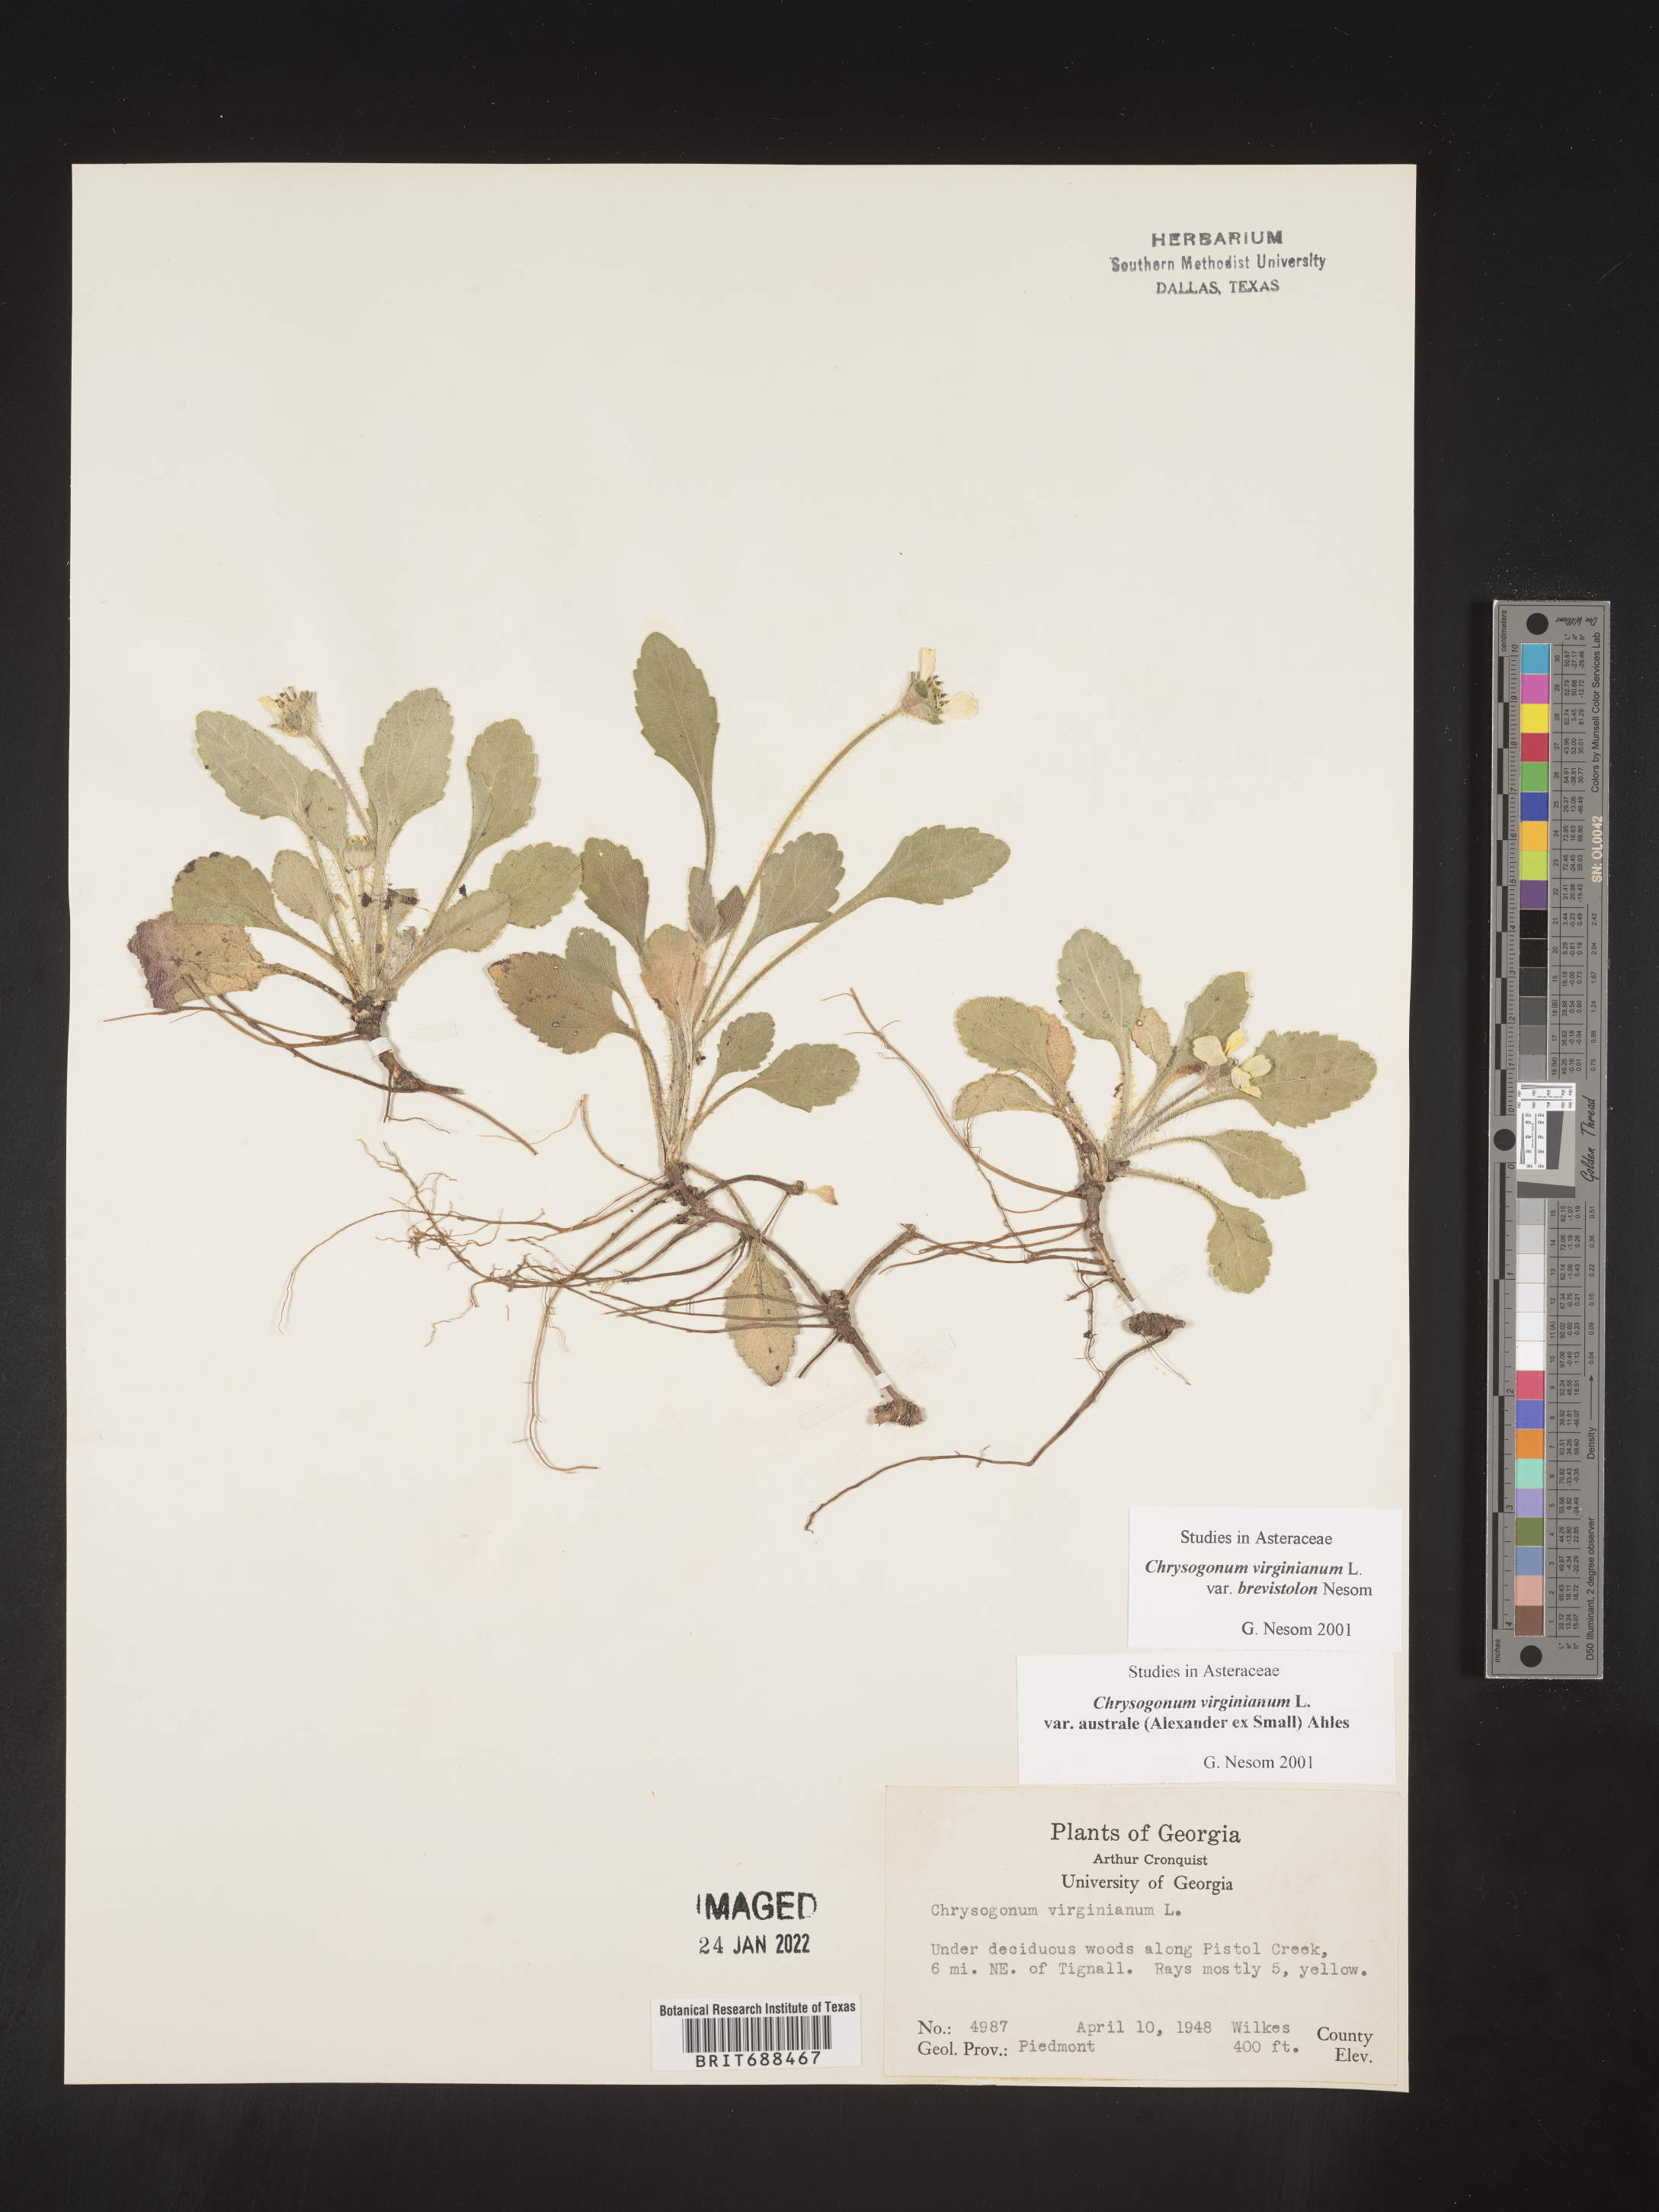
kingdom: Plantae
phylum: Tracheophyta
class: Magnoliopsida
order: Asterales
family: Asteraceae
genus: Chrysogonum
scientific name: Chrysogonum virginianum
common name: Golden-knee
